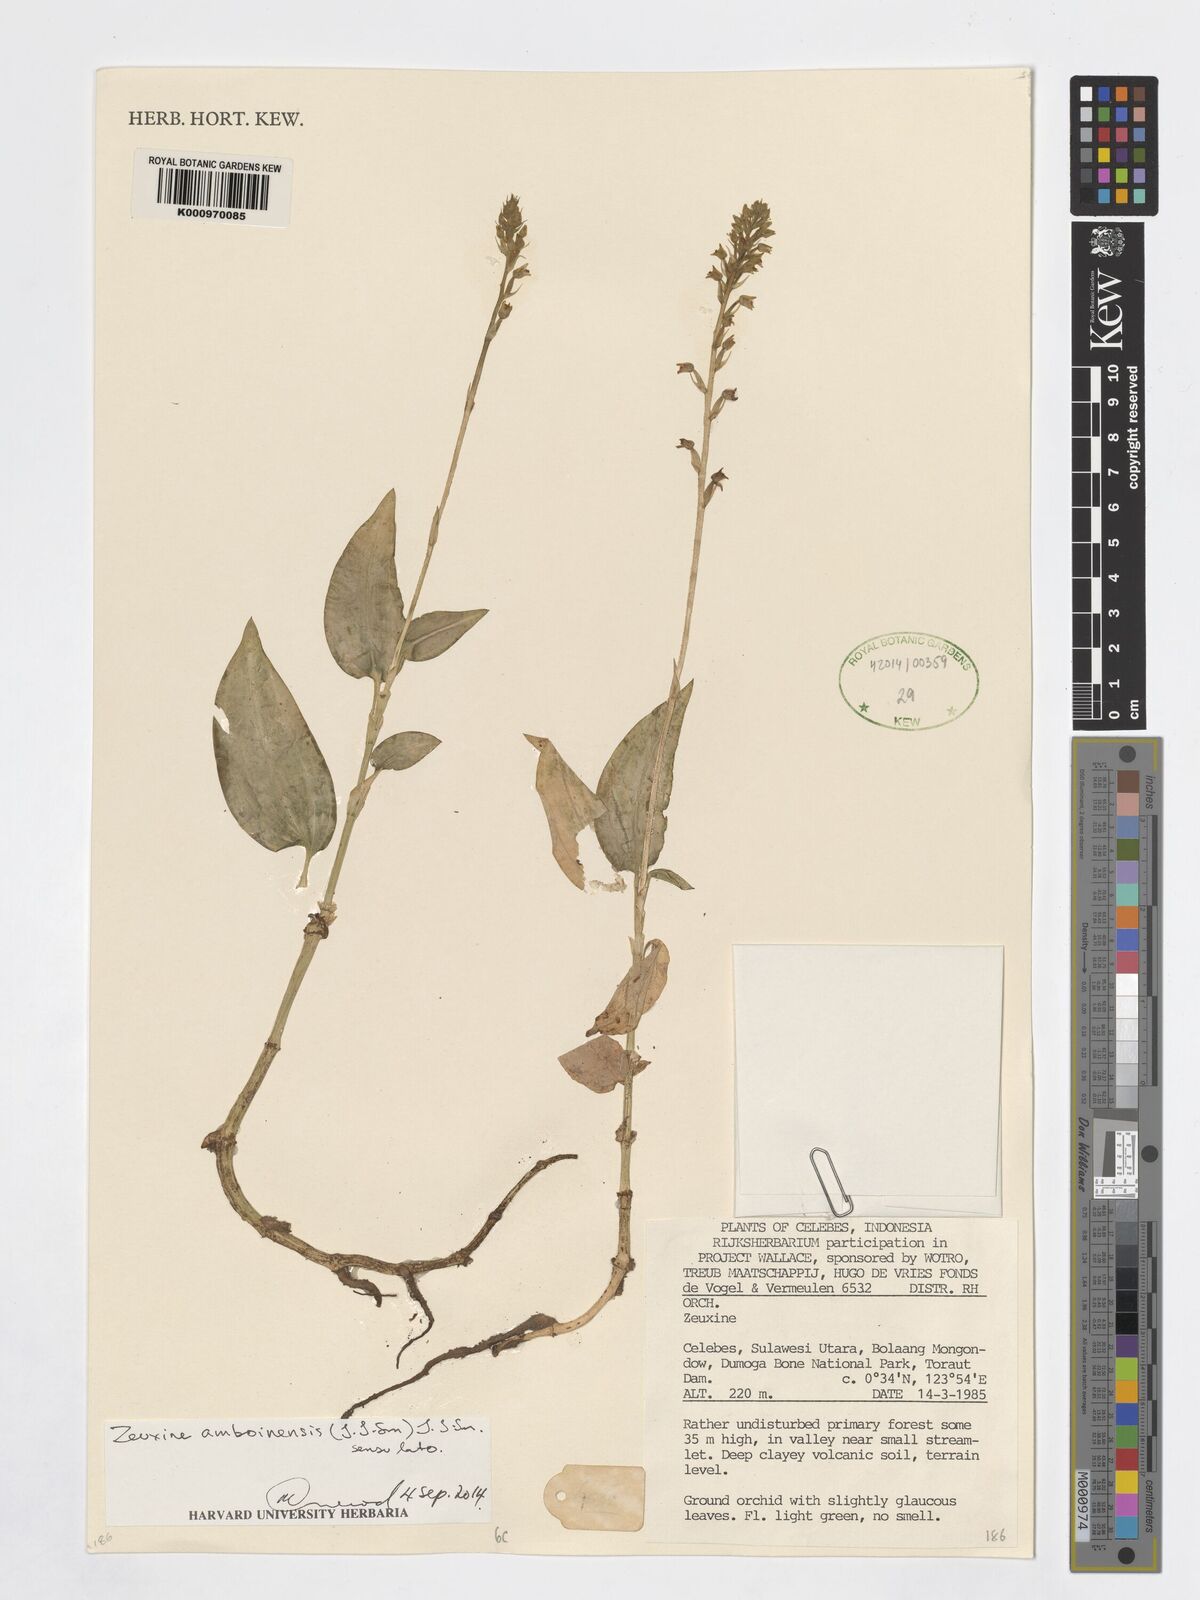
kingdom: Plantae
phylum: Tracheophyta
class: Liliopsida
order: Asparagales
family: Orchidaceae
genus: Zeuxine
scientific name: Zeuxine amboinensis
